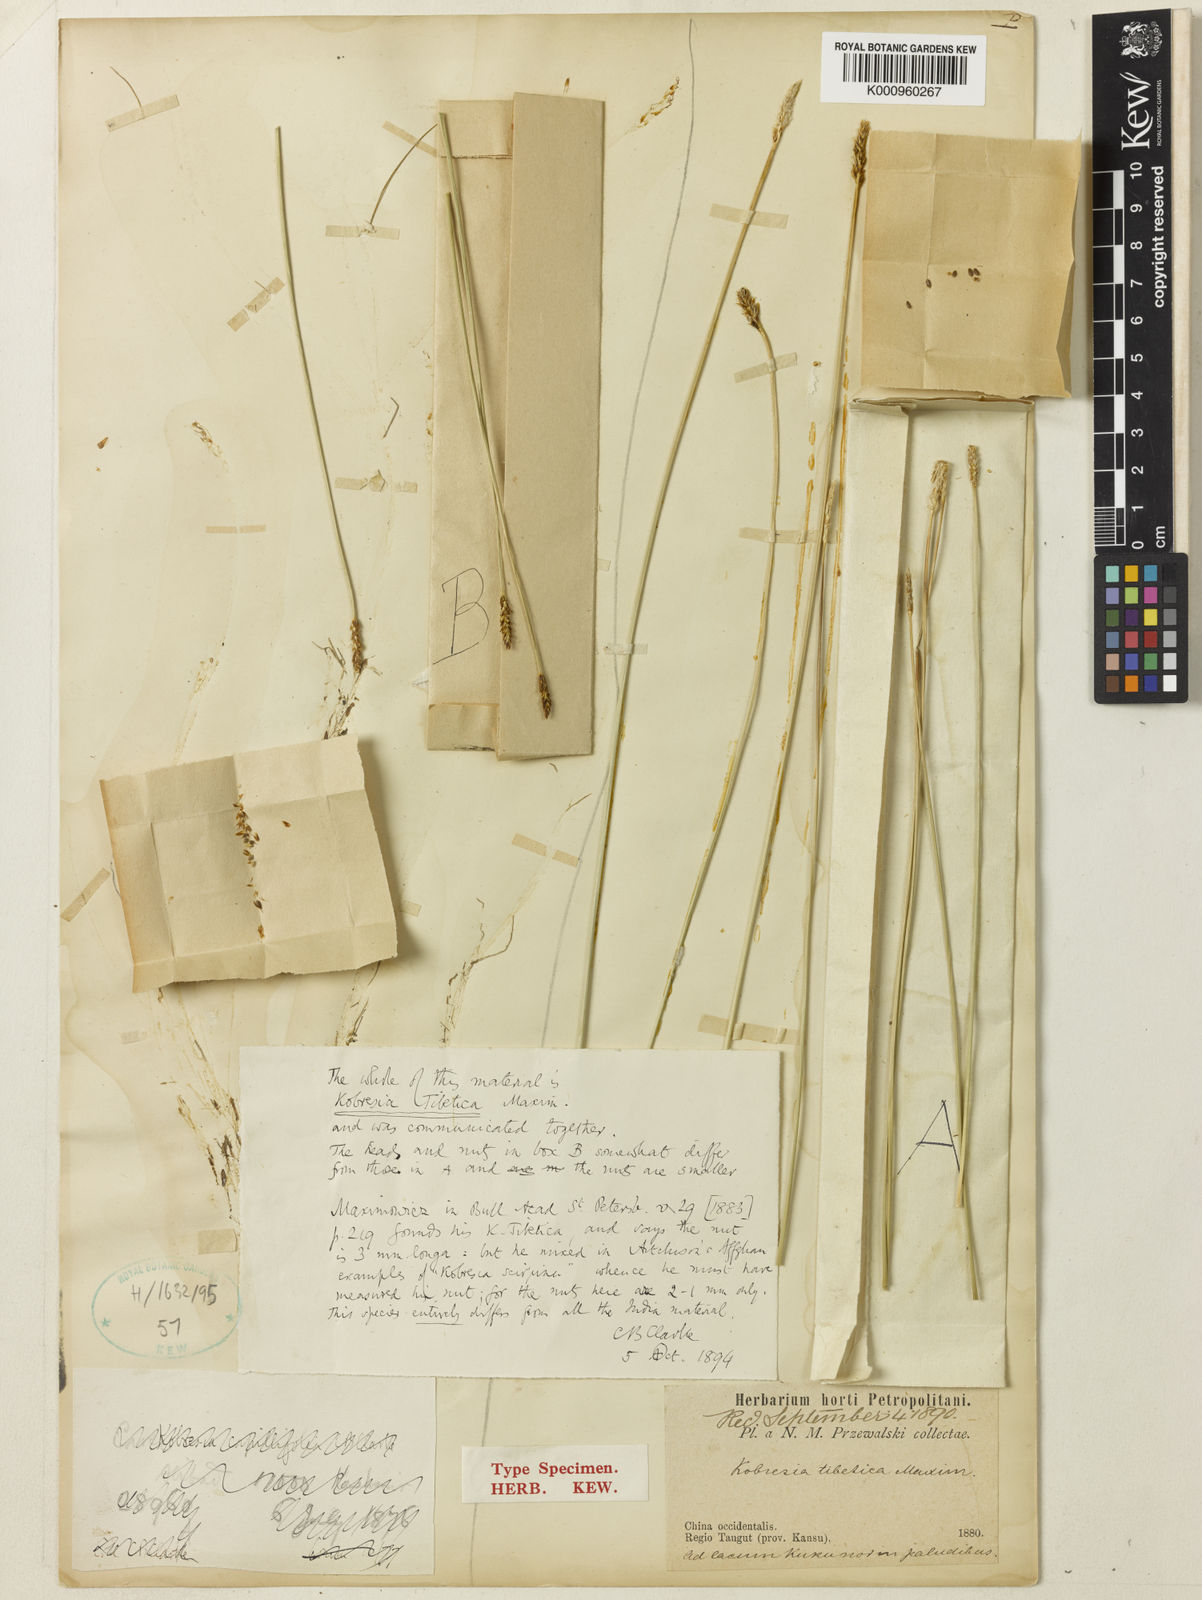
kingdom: Plantae
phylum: Tracheophyta
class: Liliopsida
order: Poales
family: Cyperaceae
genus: Carex
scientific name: Carex tibetikobresia
